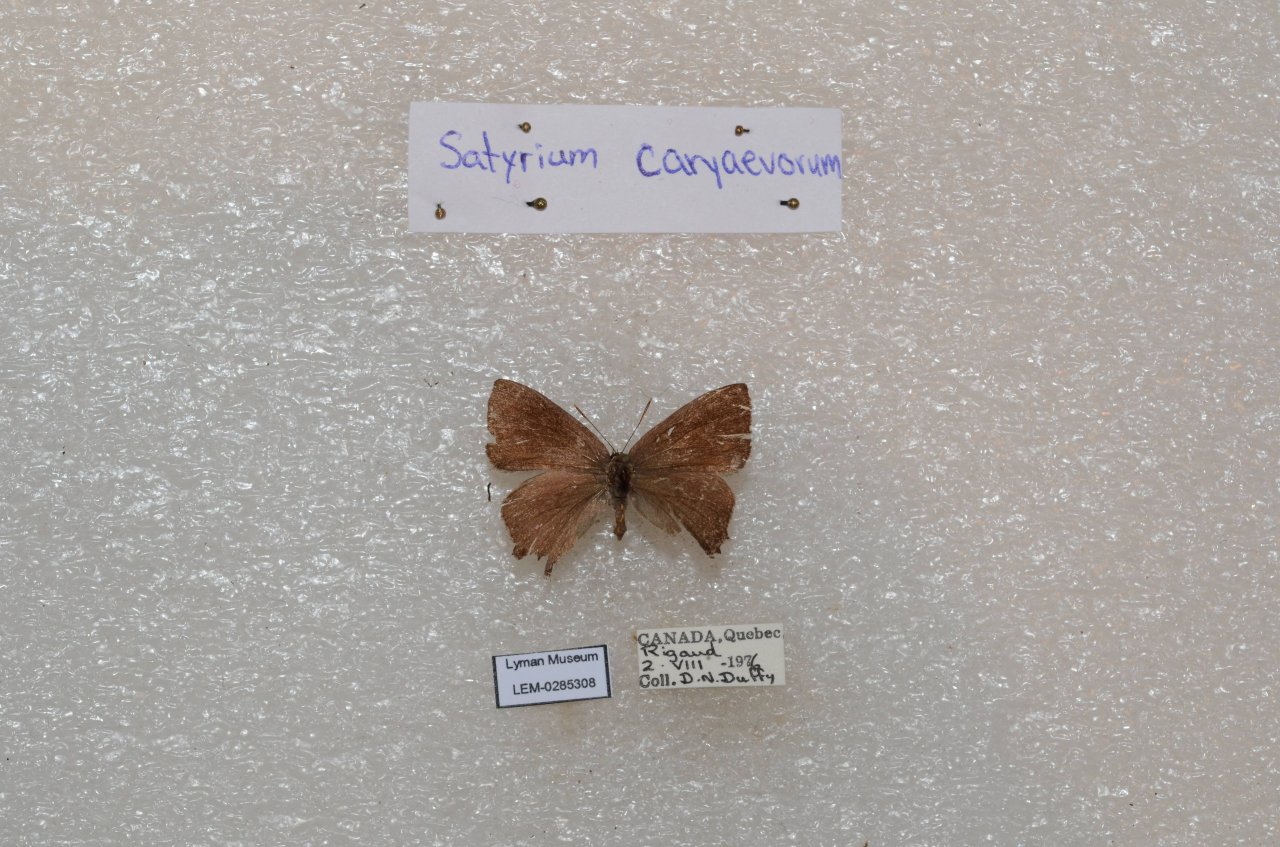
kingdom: Animalia
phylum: Arthropoda
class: Insecta
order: Lepidoptera
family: Lycaenidae
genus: Strymon
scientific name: Strymon caryaevorus
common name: Hickory Hairstreak
